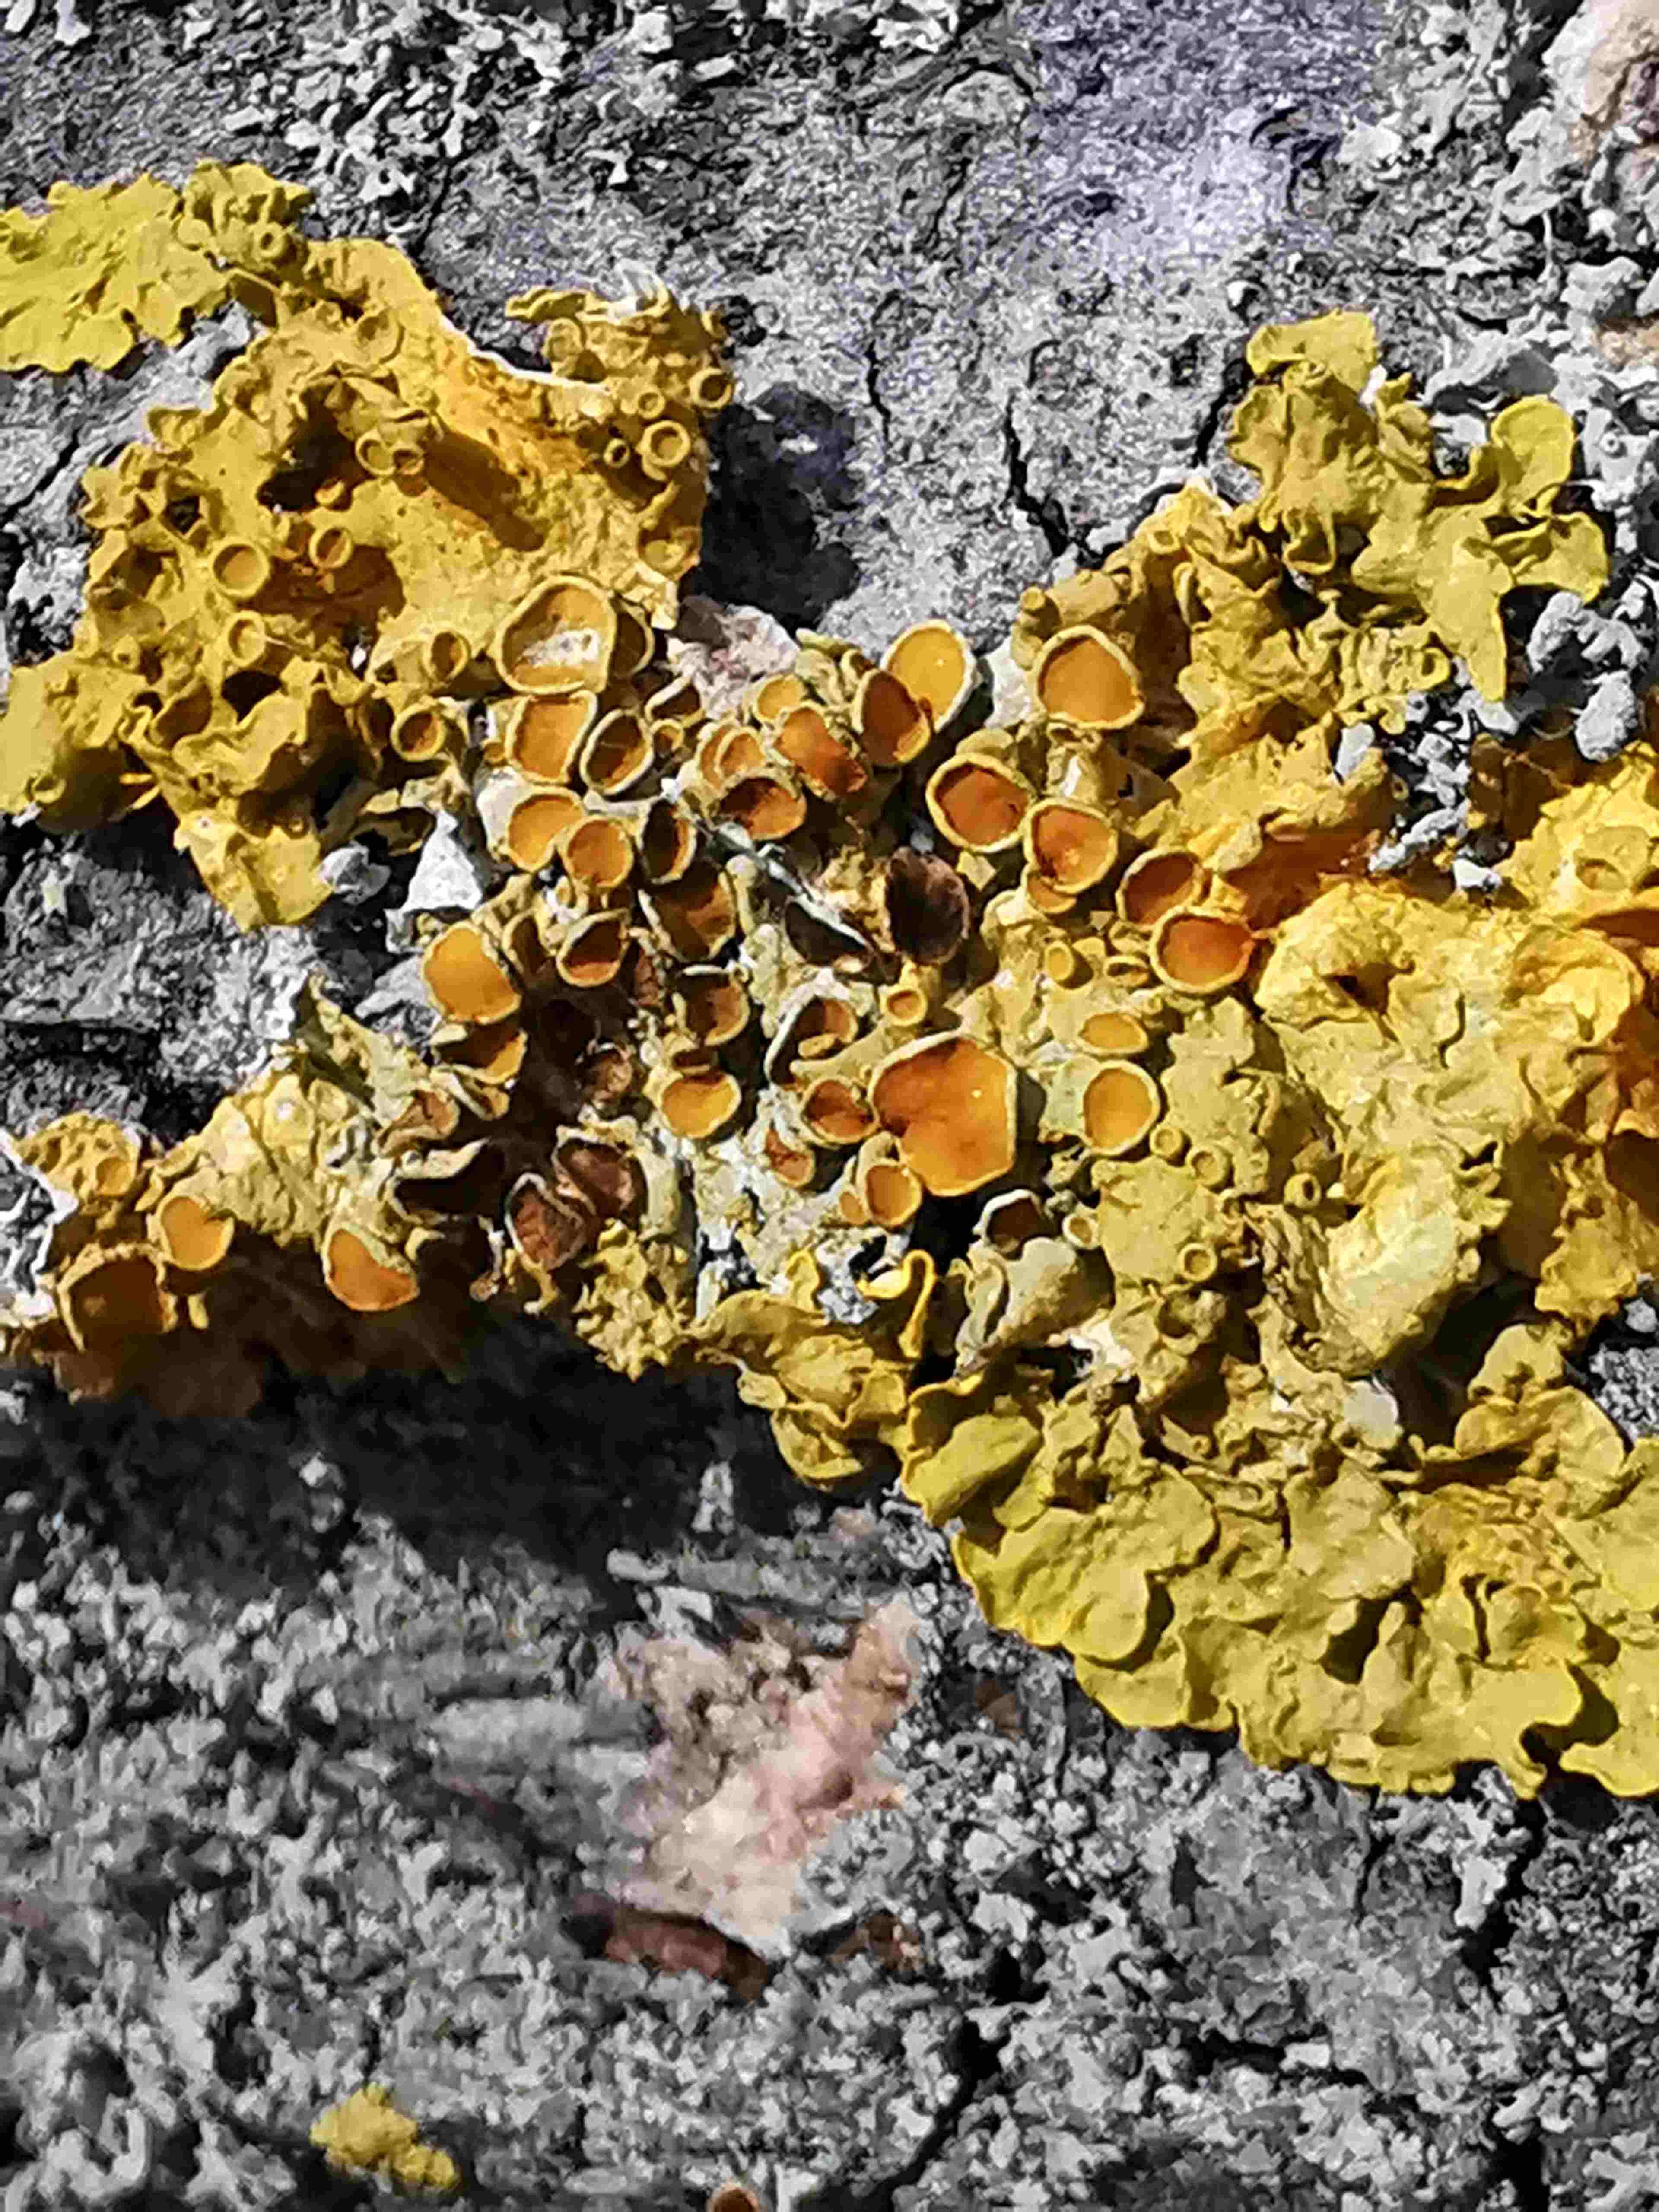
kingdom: Fungi
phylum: Ascomycota
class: Lecanoromycetes
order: Teloschistales
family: Teloschistaceae
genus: Xanthoria
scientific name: Xanthoria parietina
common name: almindelig væggelav
